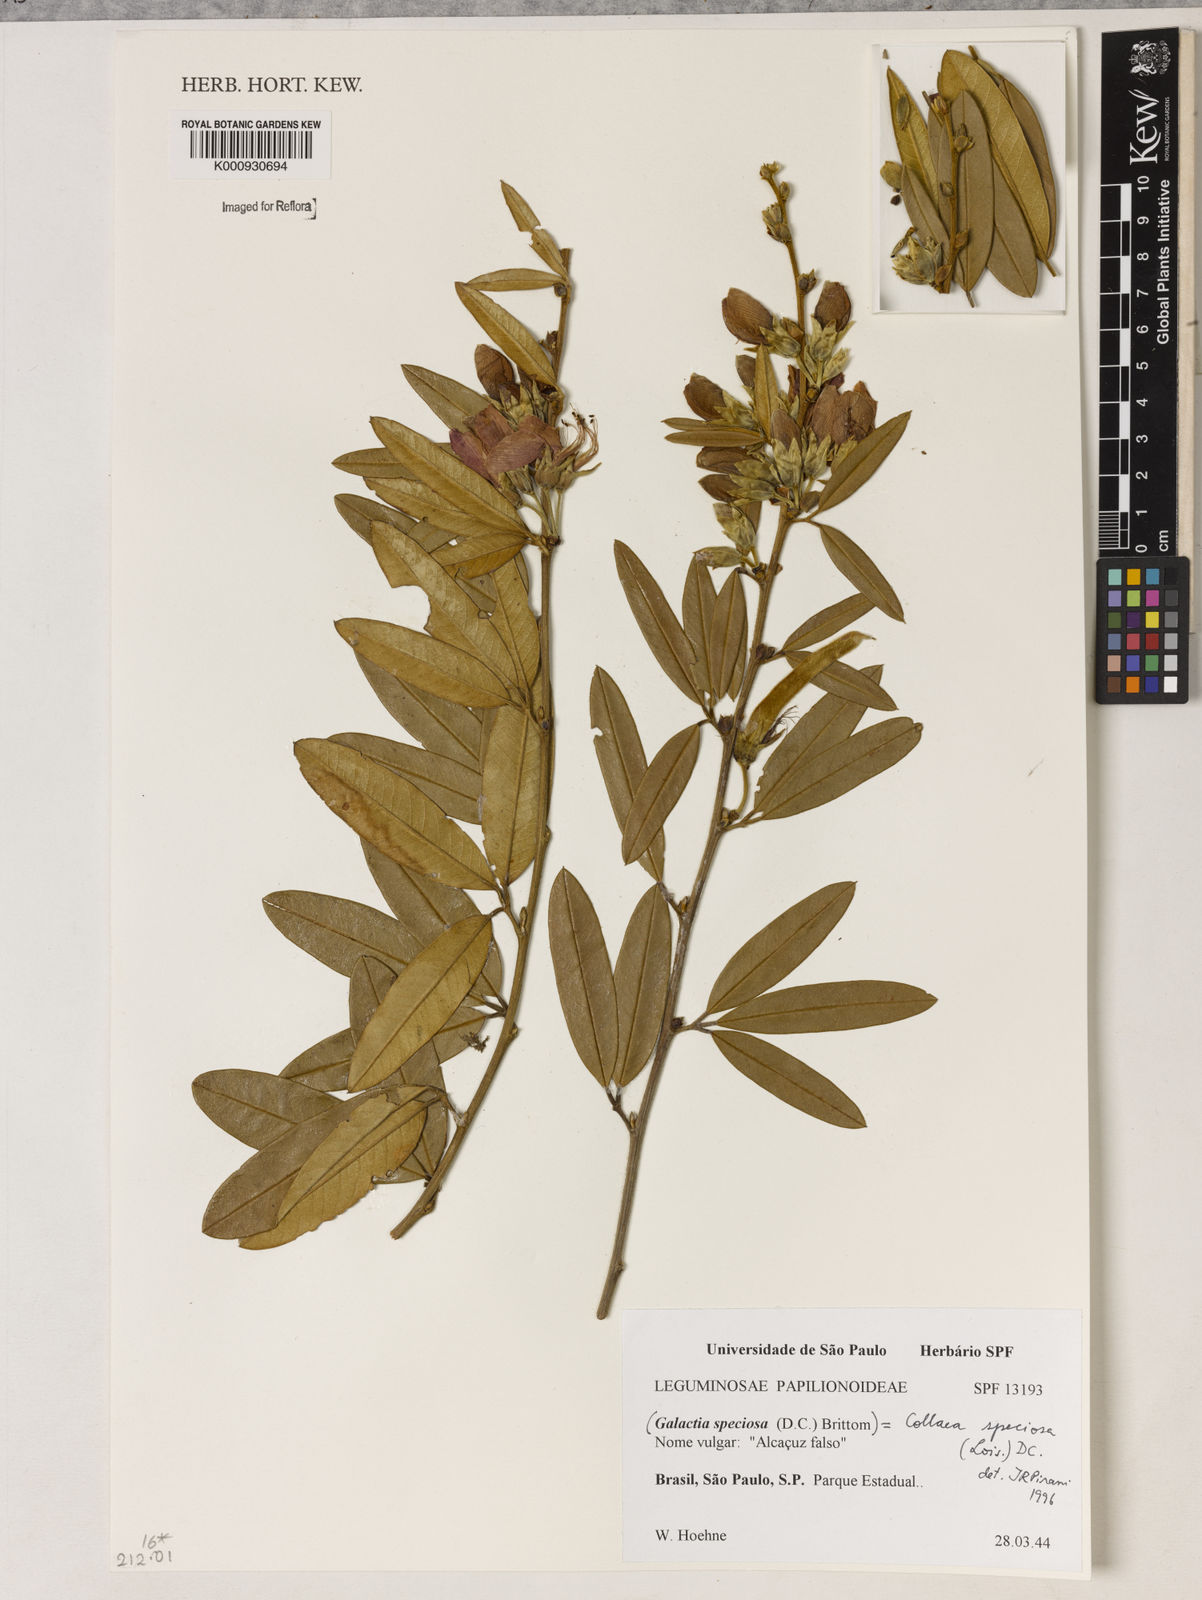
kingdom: Plantae
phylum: Tracheophyta
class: Magnoliopsida
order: Lamiales
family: Lamiaceae
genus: Coleus
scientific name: Coleus barbatus
